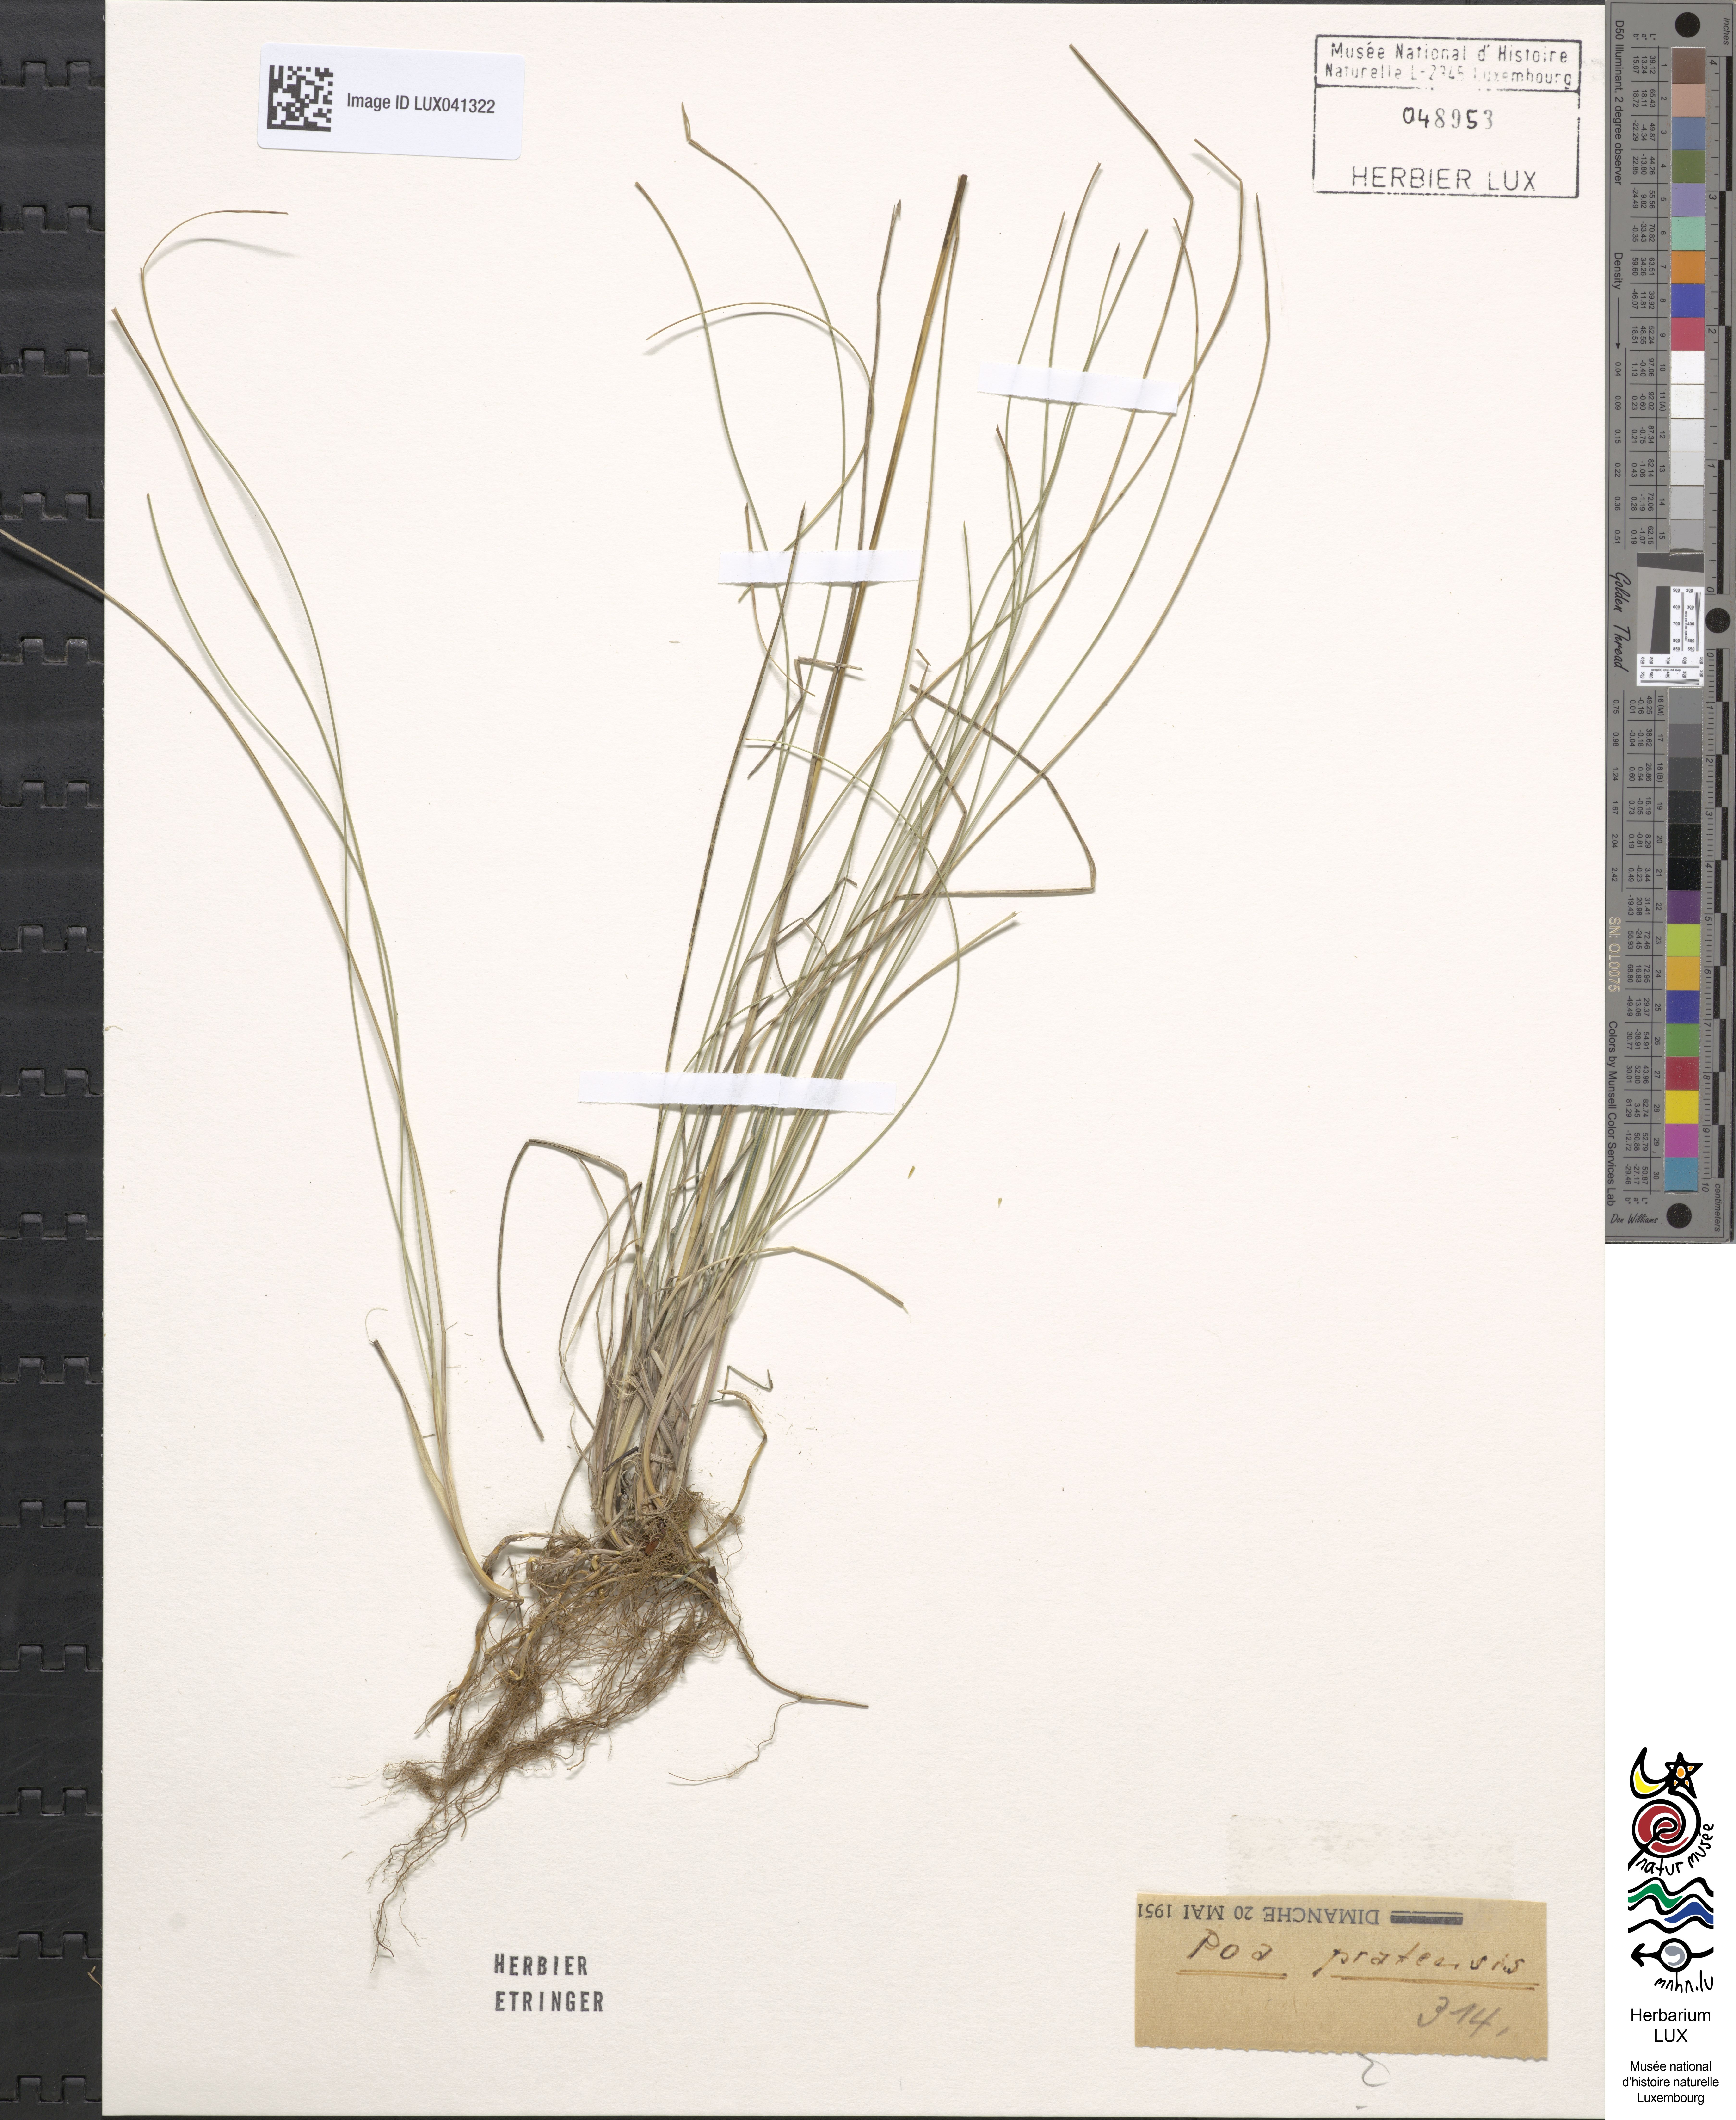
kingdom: Plantae
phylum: Tracheophyta
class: Liliopsida
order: Poales
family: Poaceae
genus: Poa
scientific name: Poa pratensis
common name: Kentucky bluegrass
